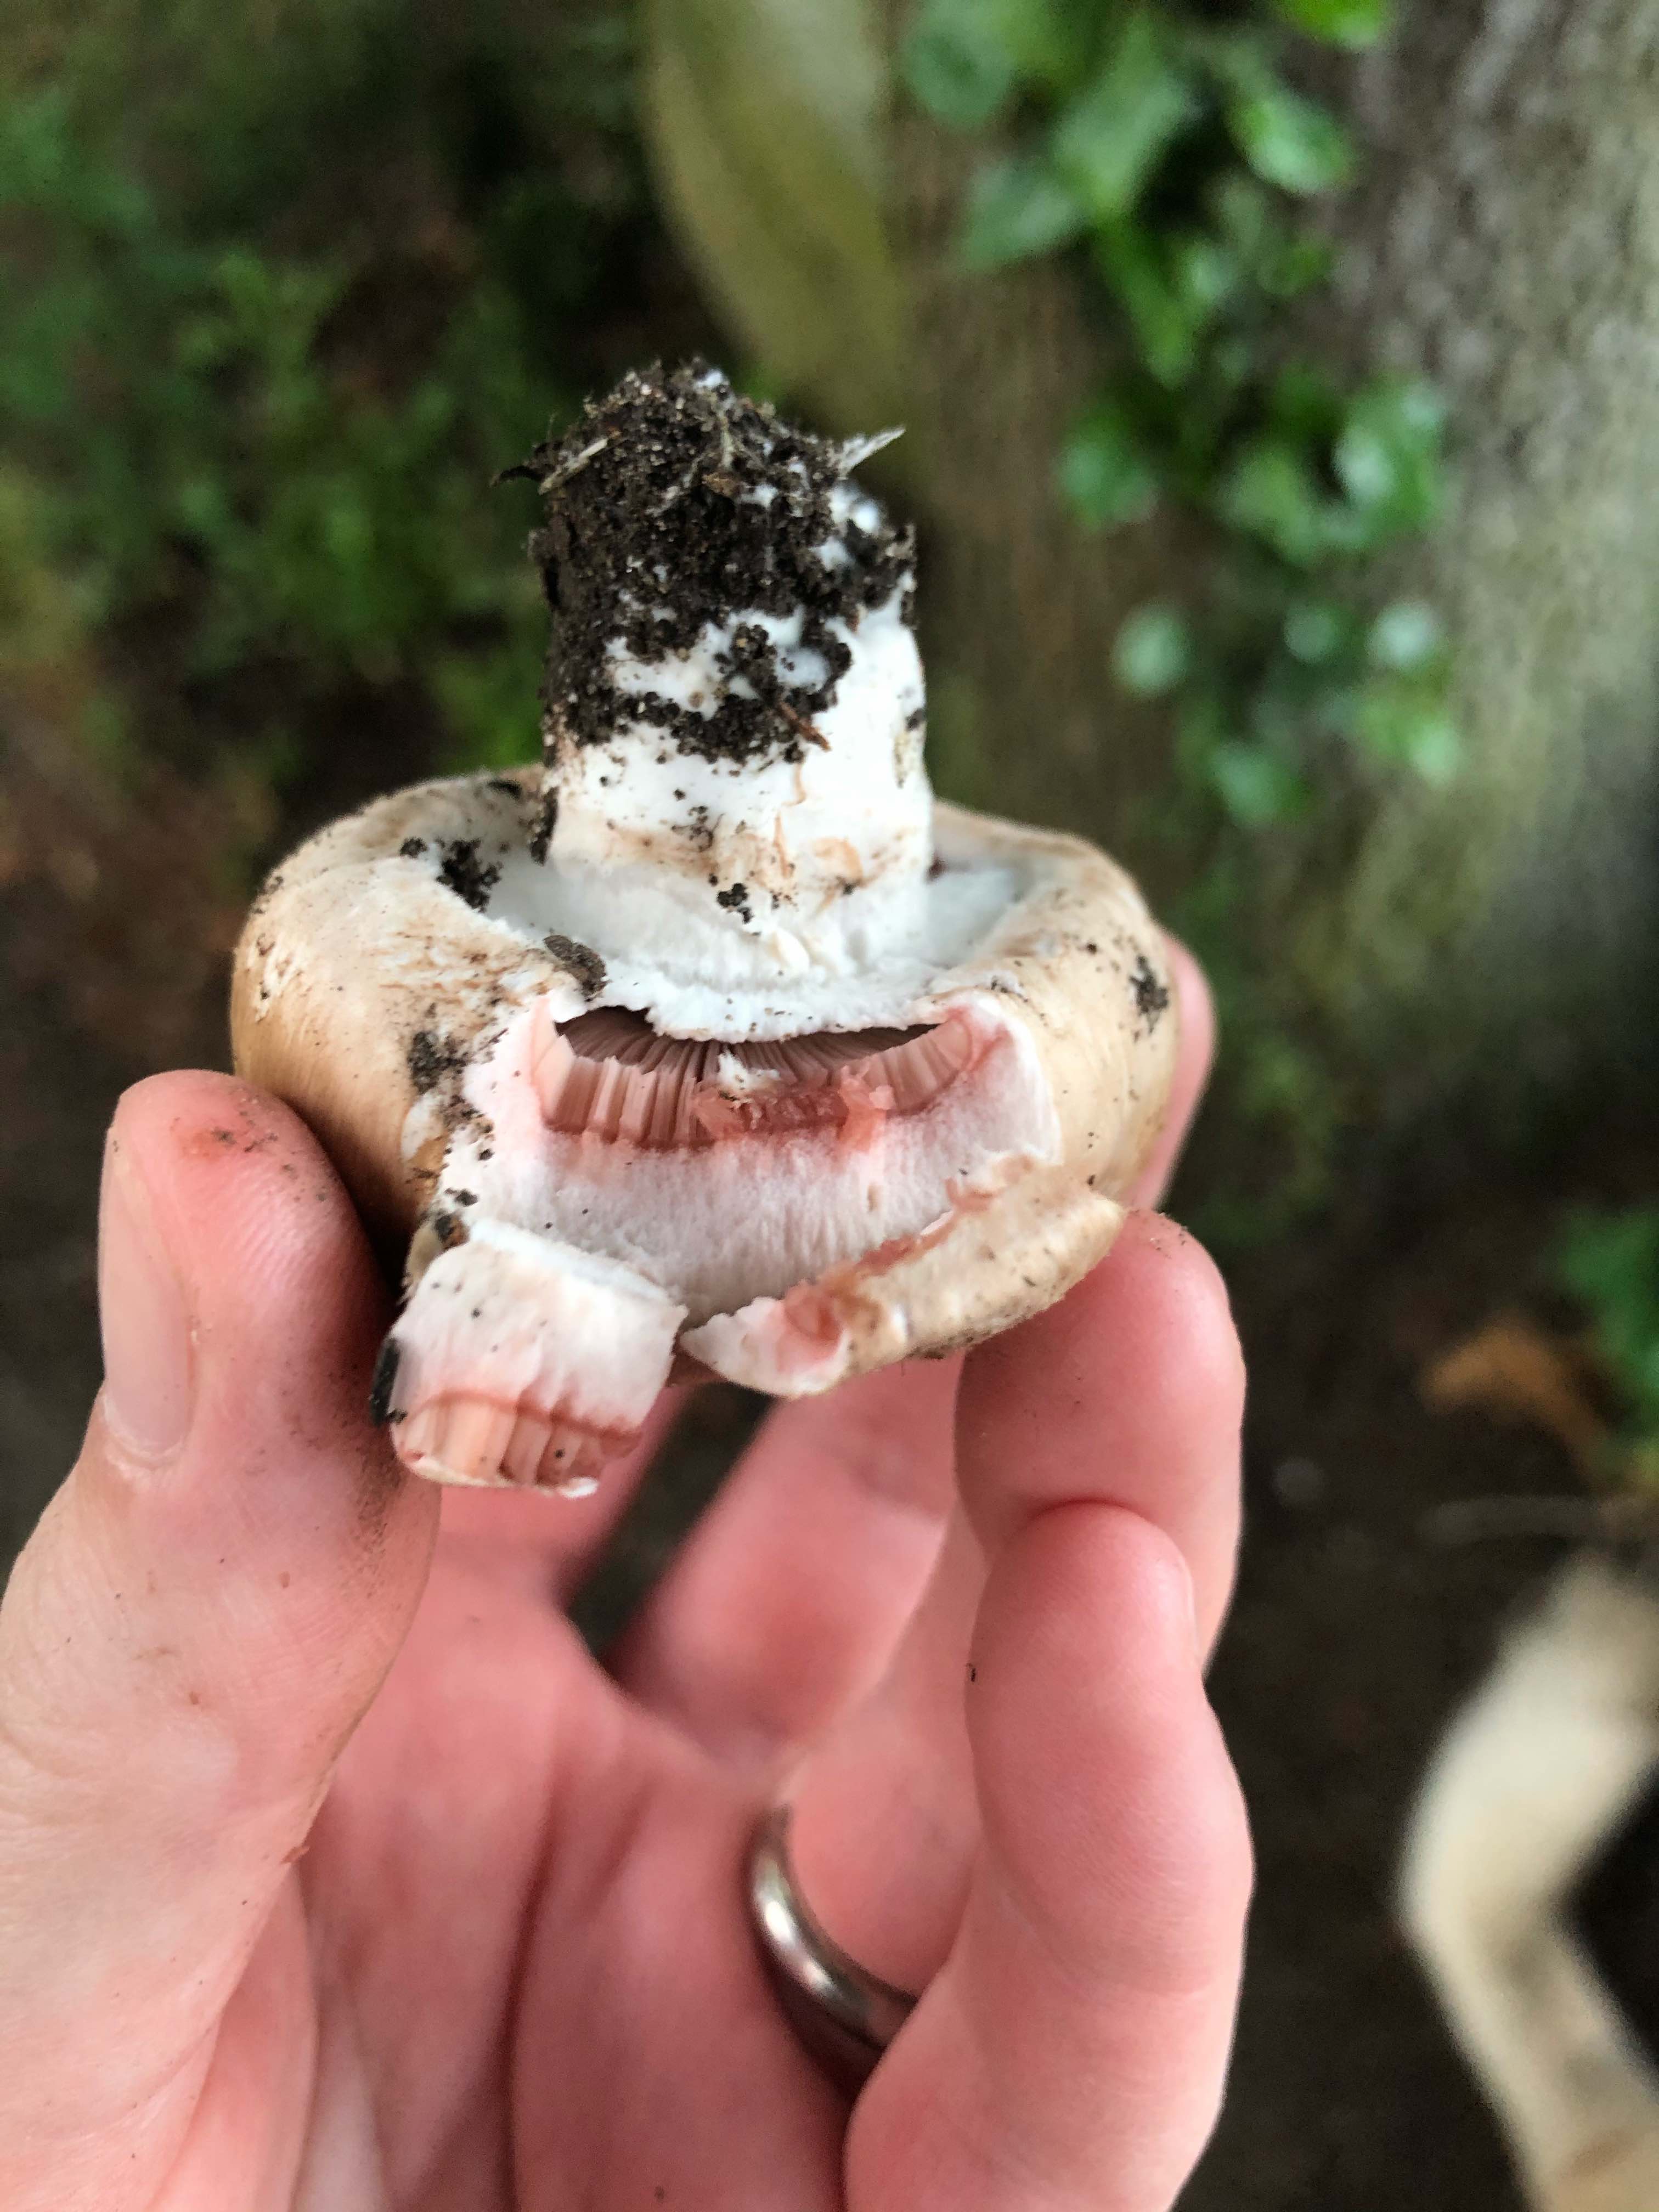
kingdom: Fungi
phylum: Basidiomycota
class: Agaricomycetes
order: Agaricales
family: Agaricaceae
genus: Agaricus
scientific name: Agaricus
